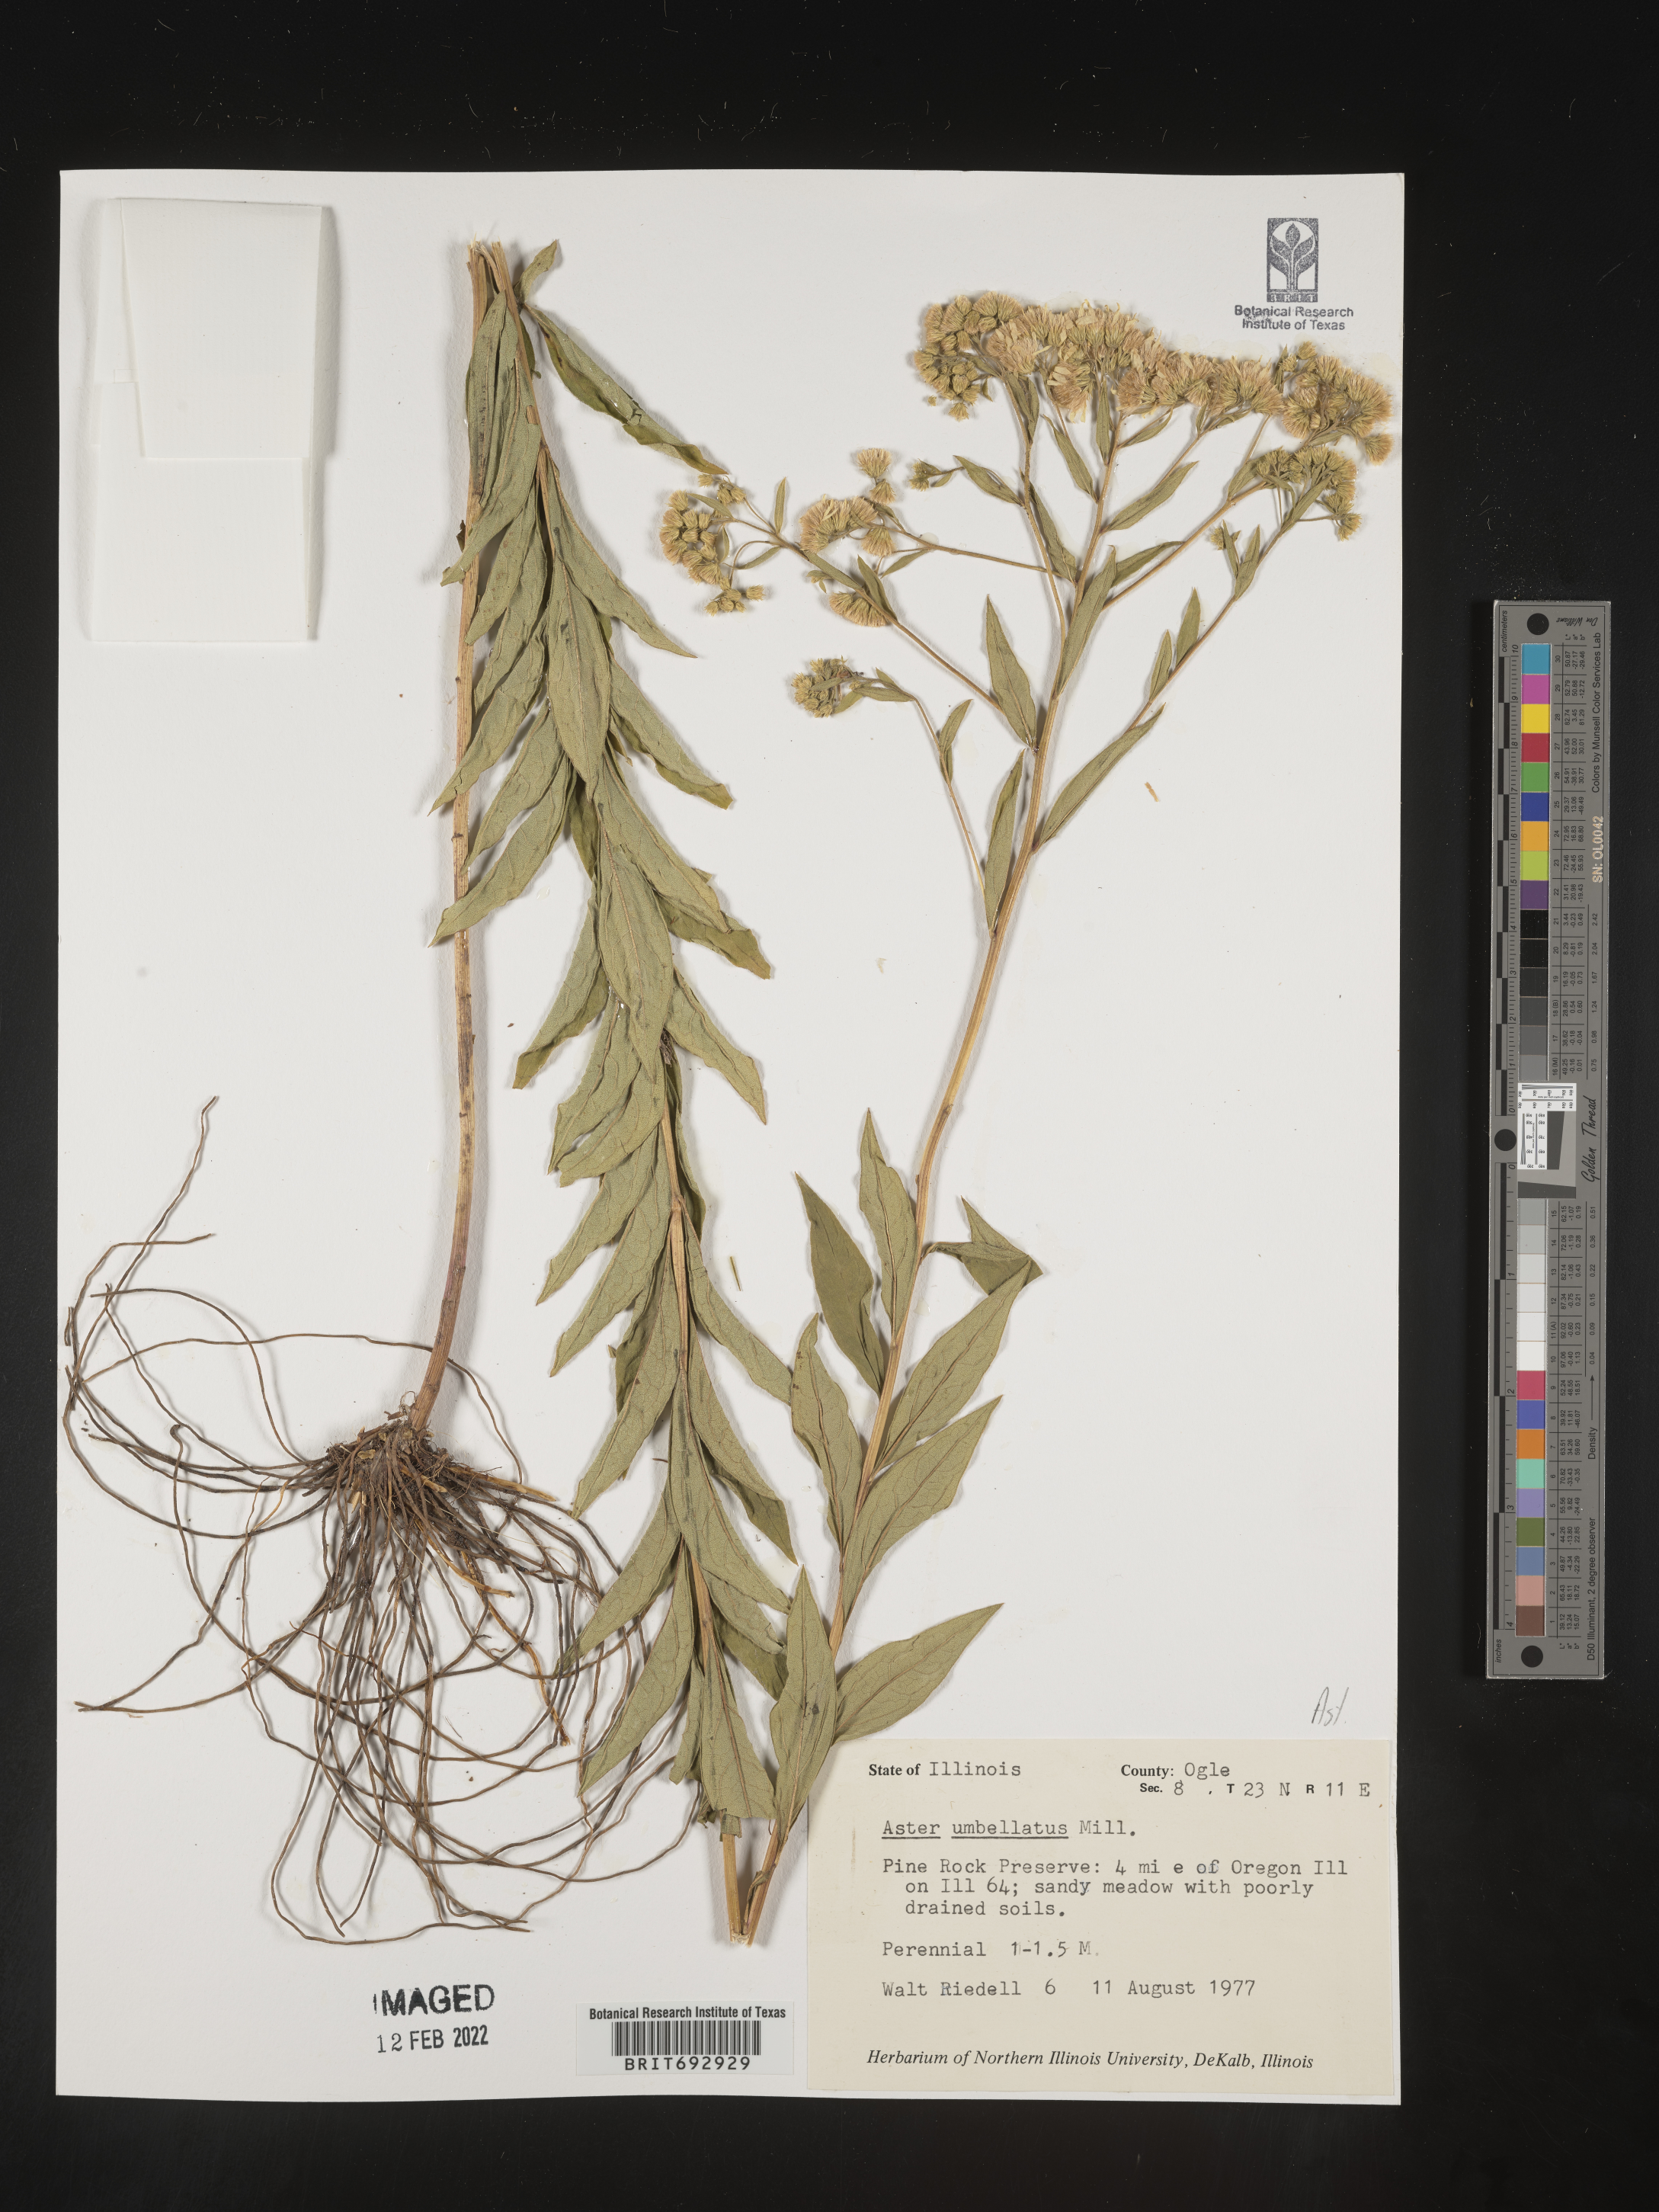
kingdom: Plantae
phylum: Tracheophyta
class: Magnoliopsida
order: Asterales
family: Asteraceae
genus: Doellingeria
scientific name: Doellingeria umbellata
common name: Flat-top white aster
